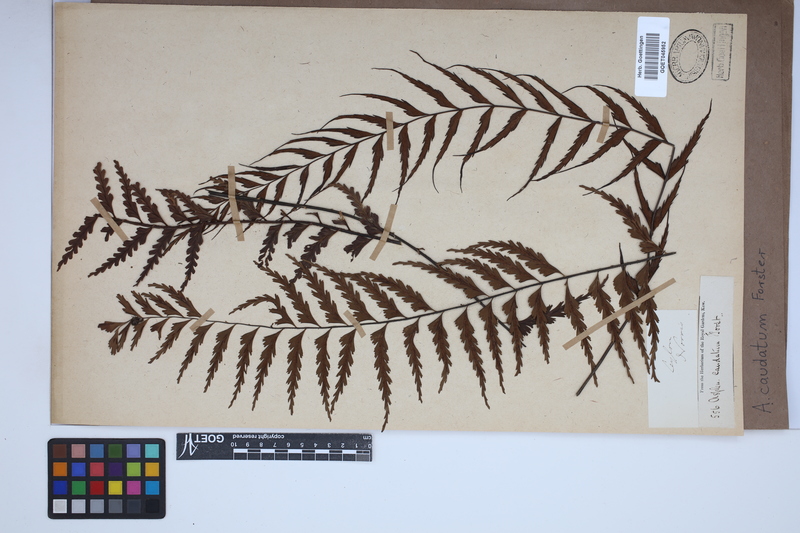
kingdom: Plantae
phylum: Tracheophyta
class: Polypodiopsida
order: Polypodiales
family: Aspleniaceae
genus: Asplenium
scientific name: Asplenium caudatum
